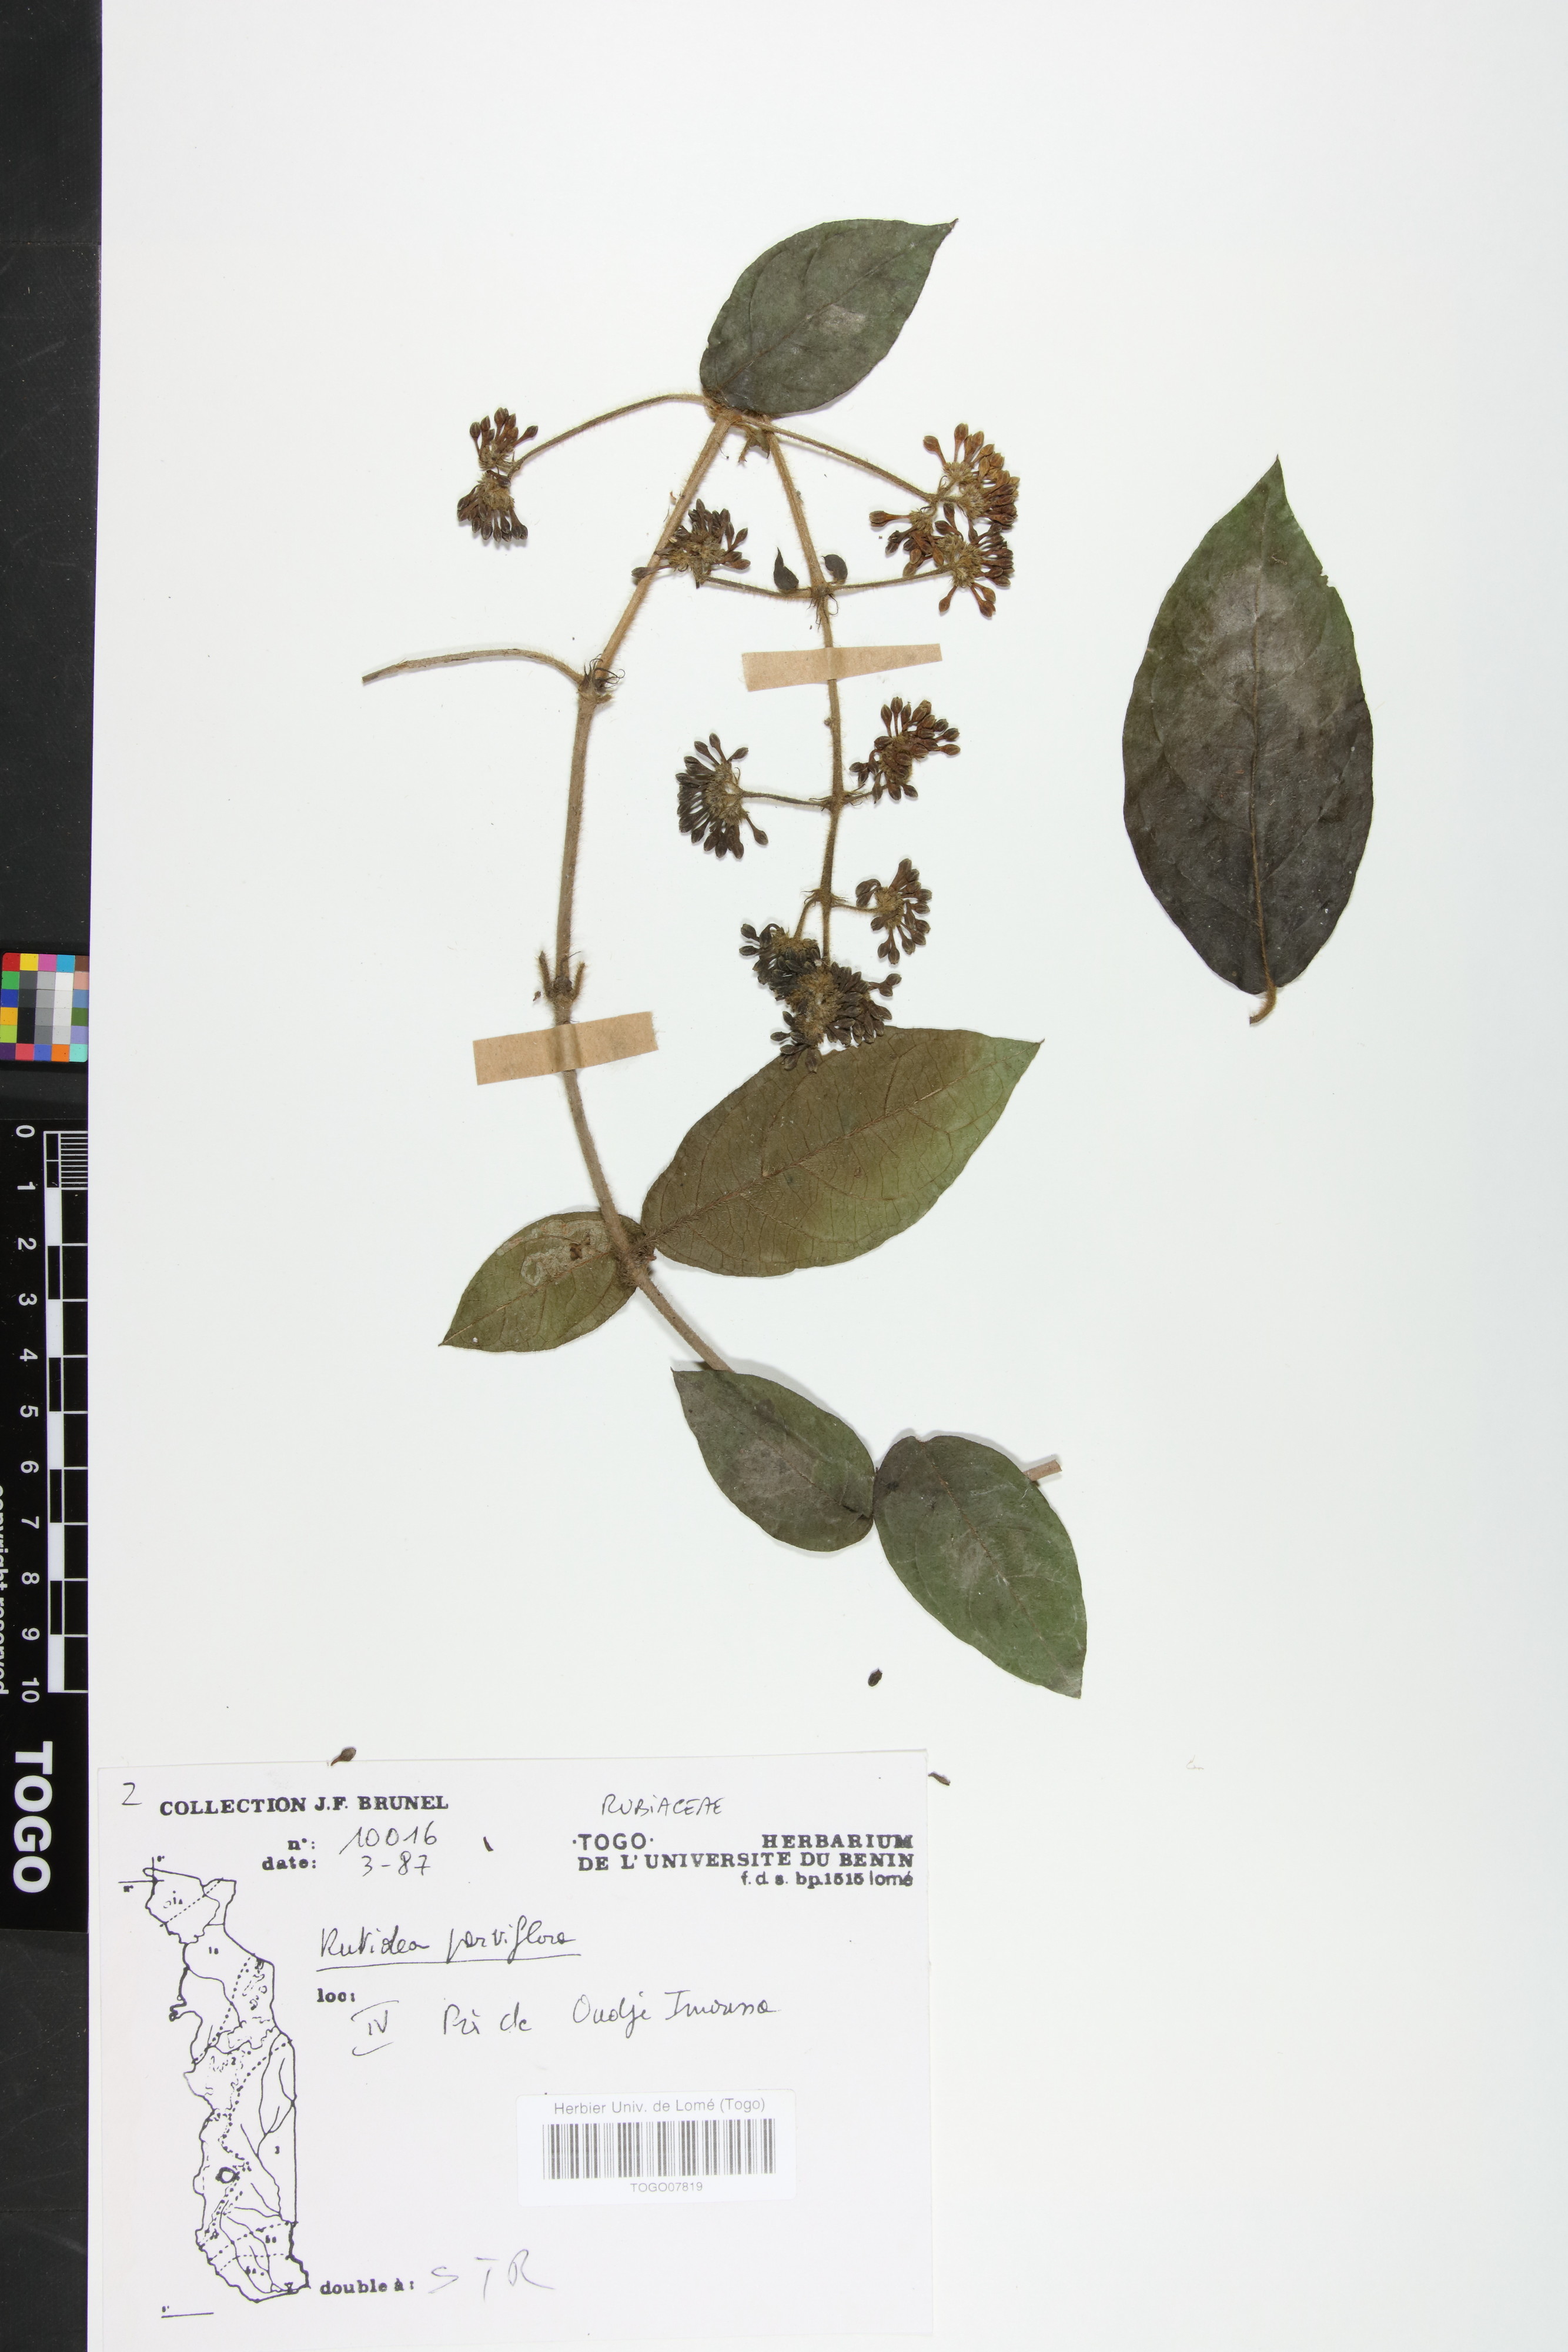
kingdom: Plantae
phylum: Tracheophyta
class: Magnoliopsida
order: Gentianales
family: Rubiaceae
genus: Rutidea
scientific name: Rutidea parviflora
